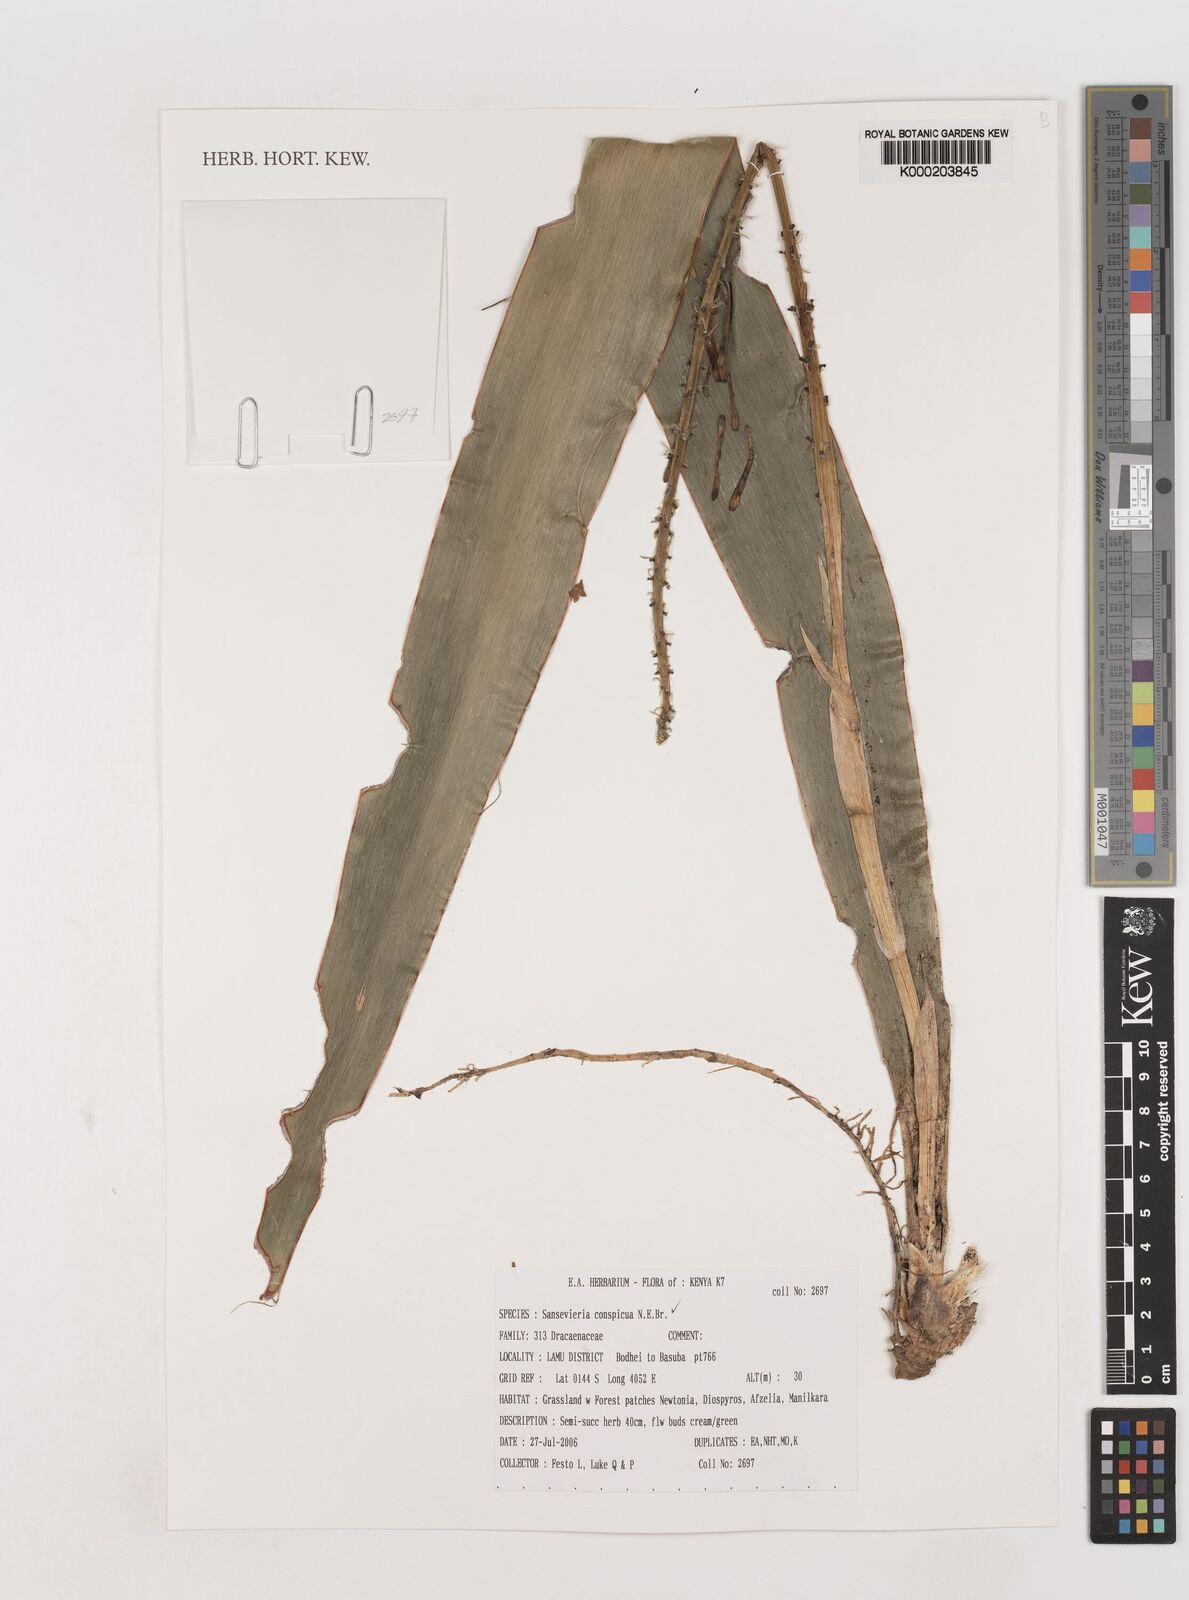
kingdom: Plantae
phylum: Tracheophyta
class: Liliopsida
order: Asparagales
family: Asparagaceae
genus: Dracaena
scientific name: Dracaena conspicua
